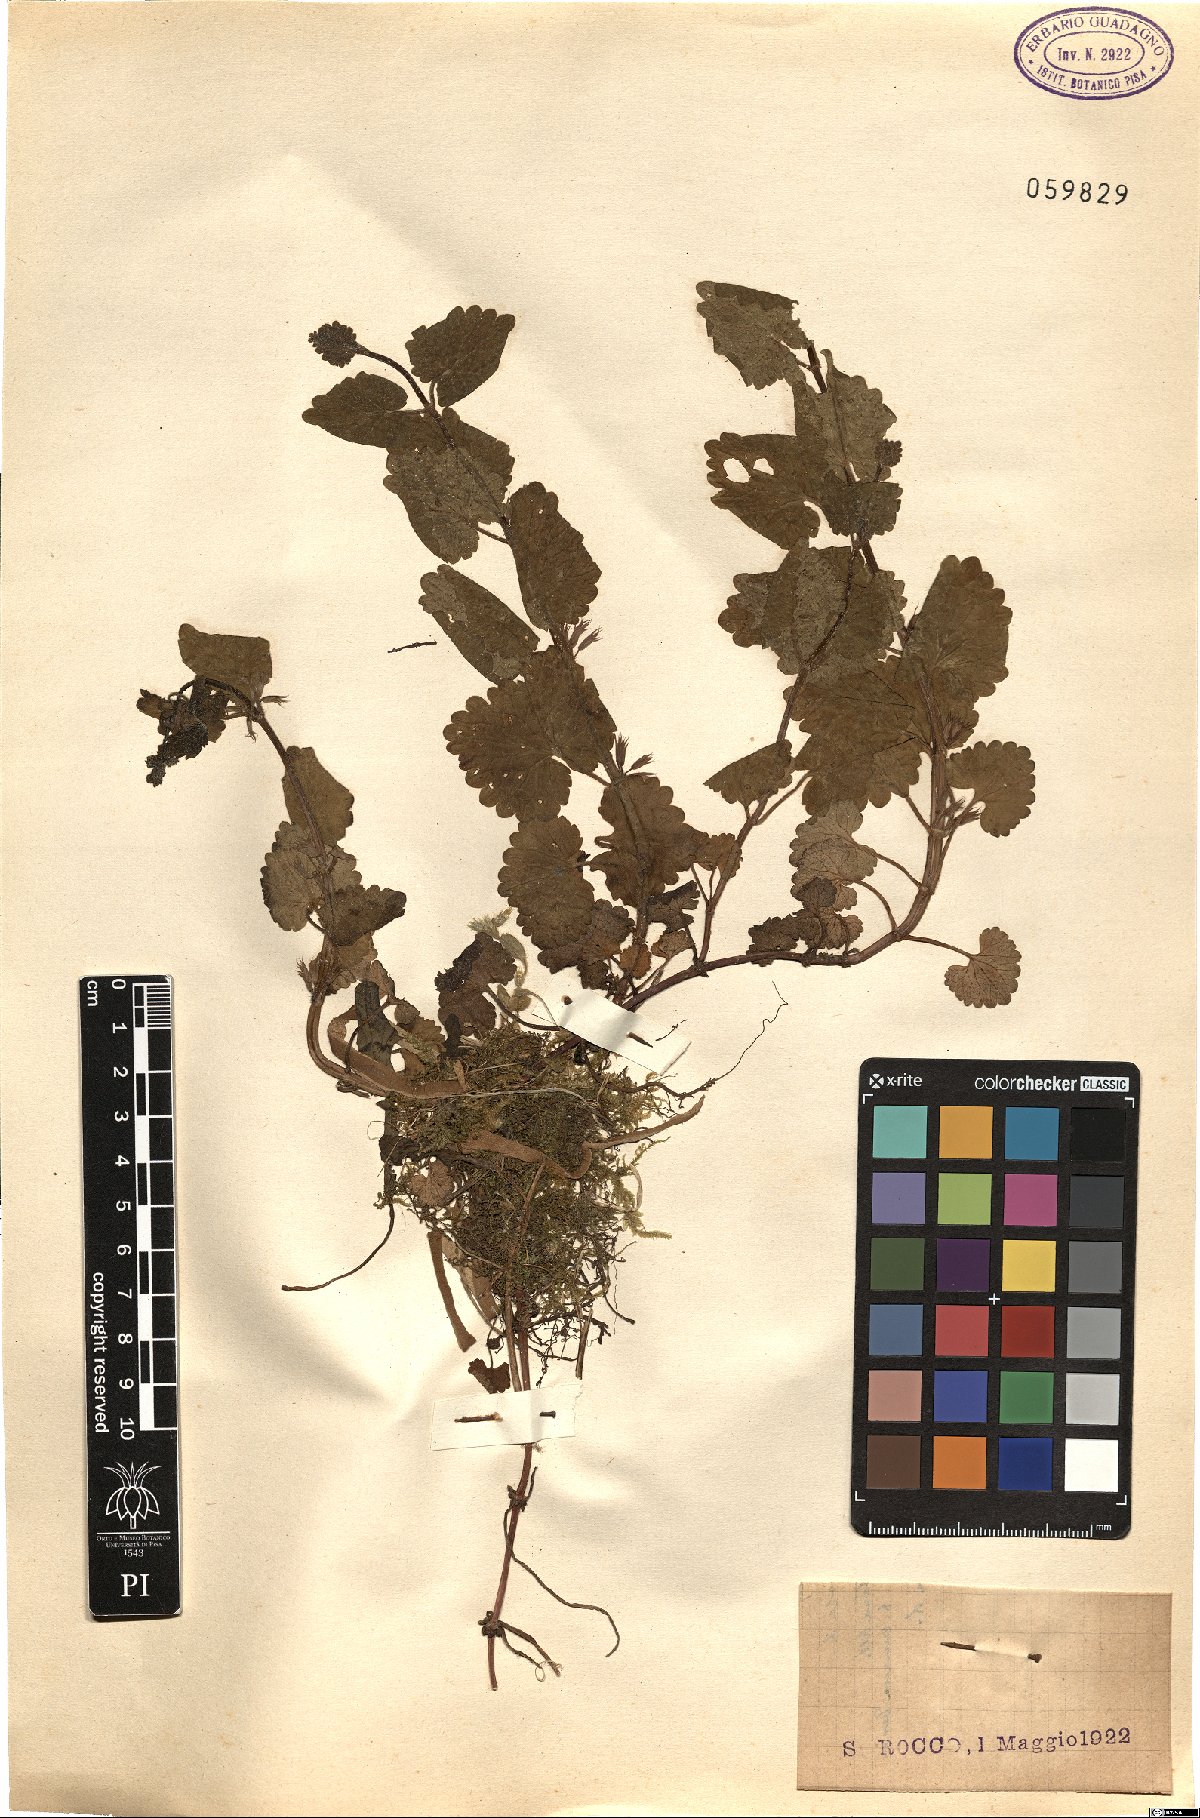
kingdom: Plantae
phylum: Tracheophyta
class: Magnoliopsida
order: Lamiales
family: Lamiaceae
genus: Glechoma
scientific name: Glechoma hirsuta
